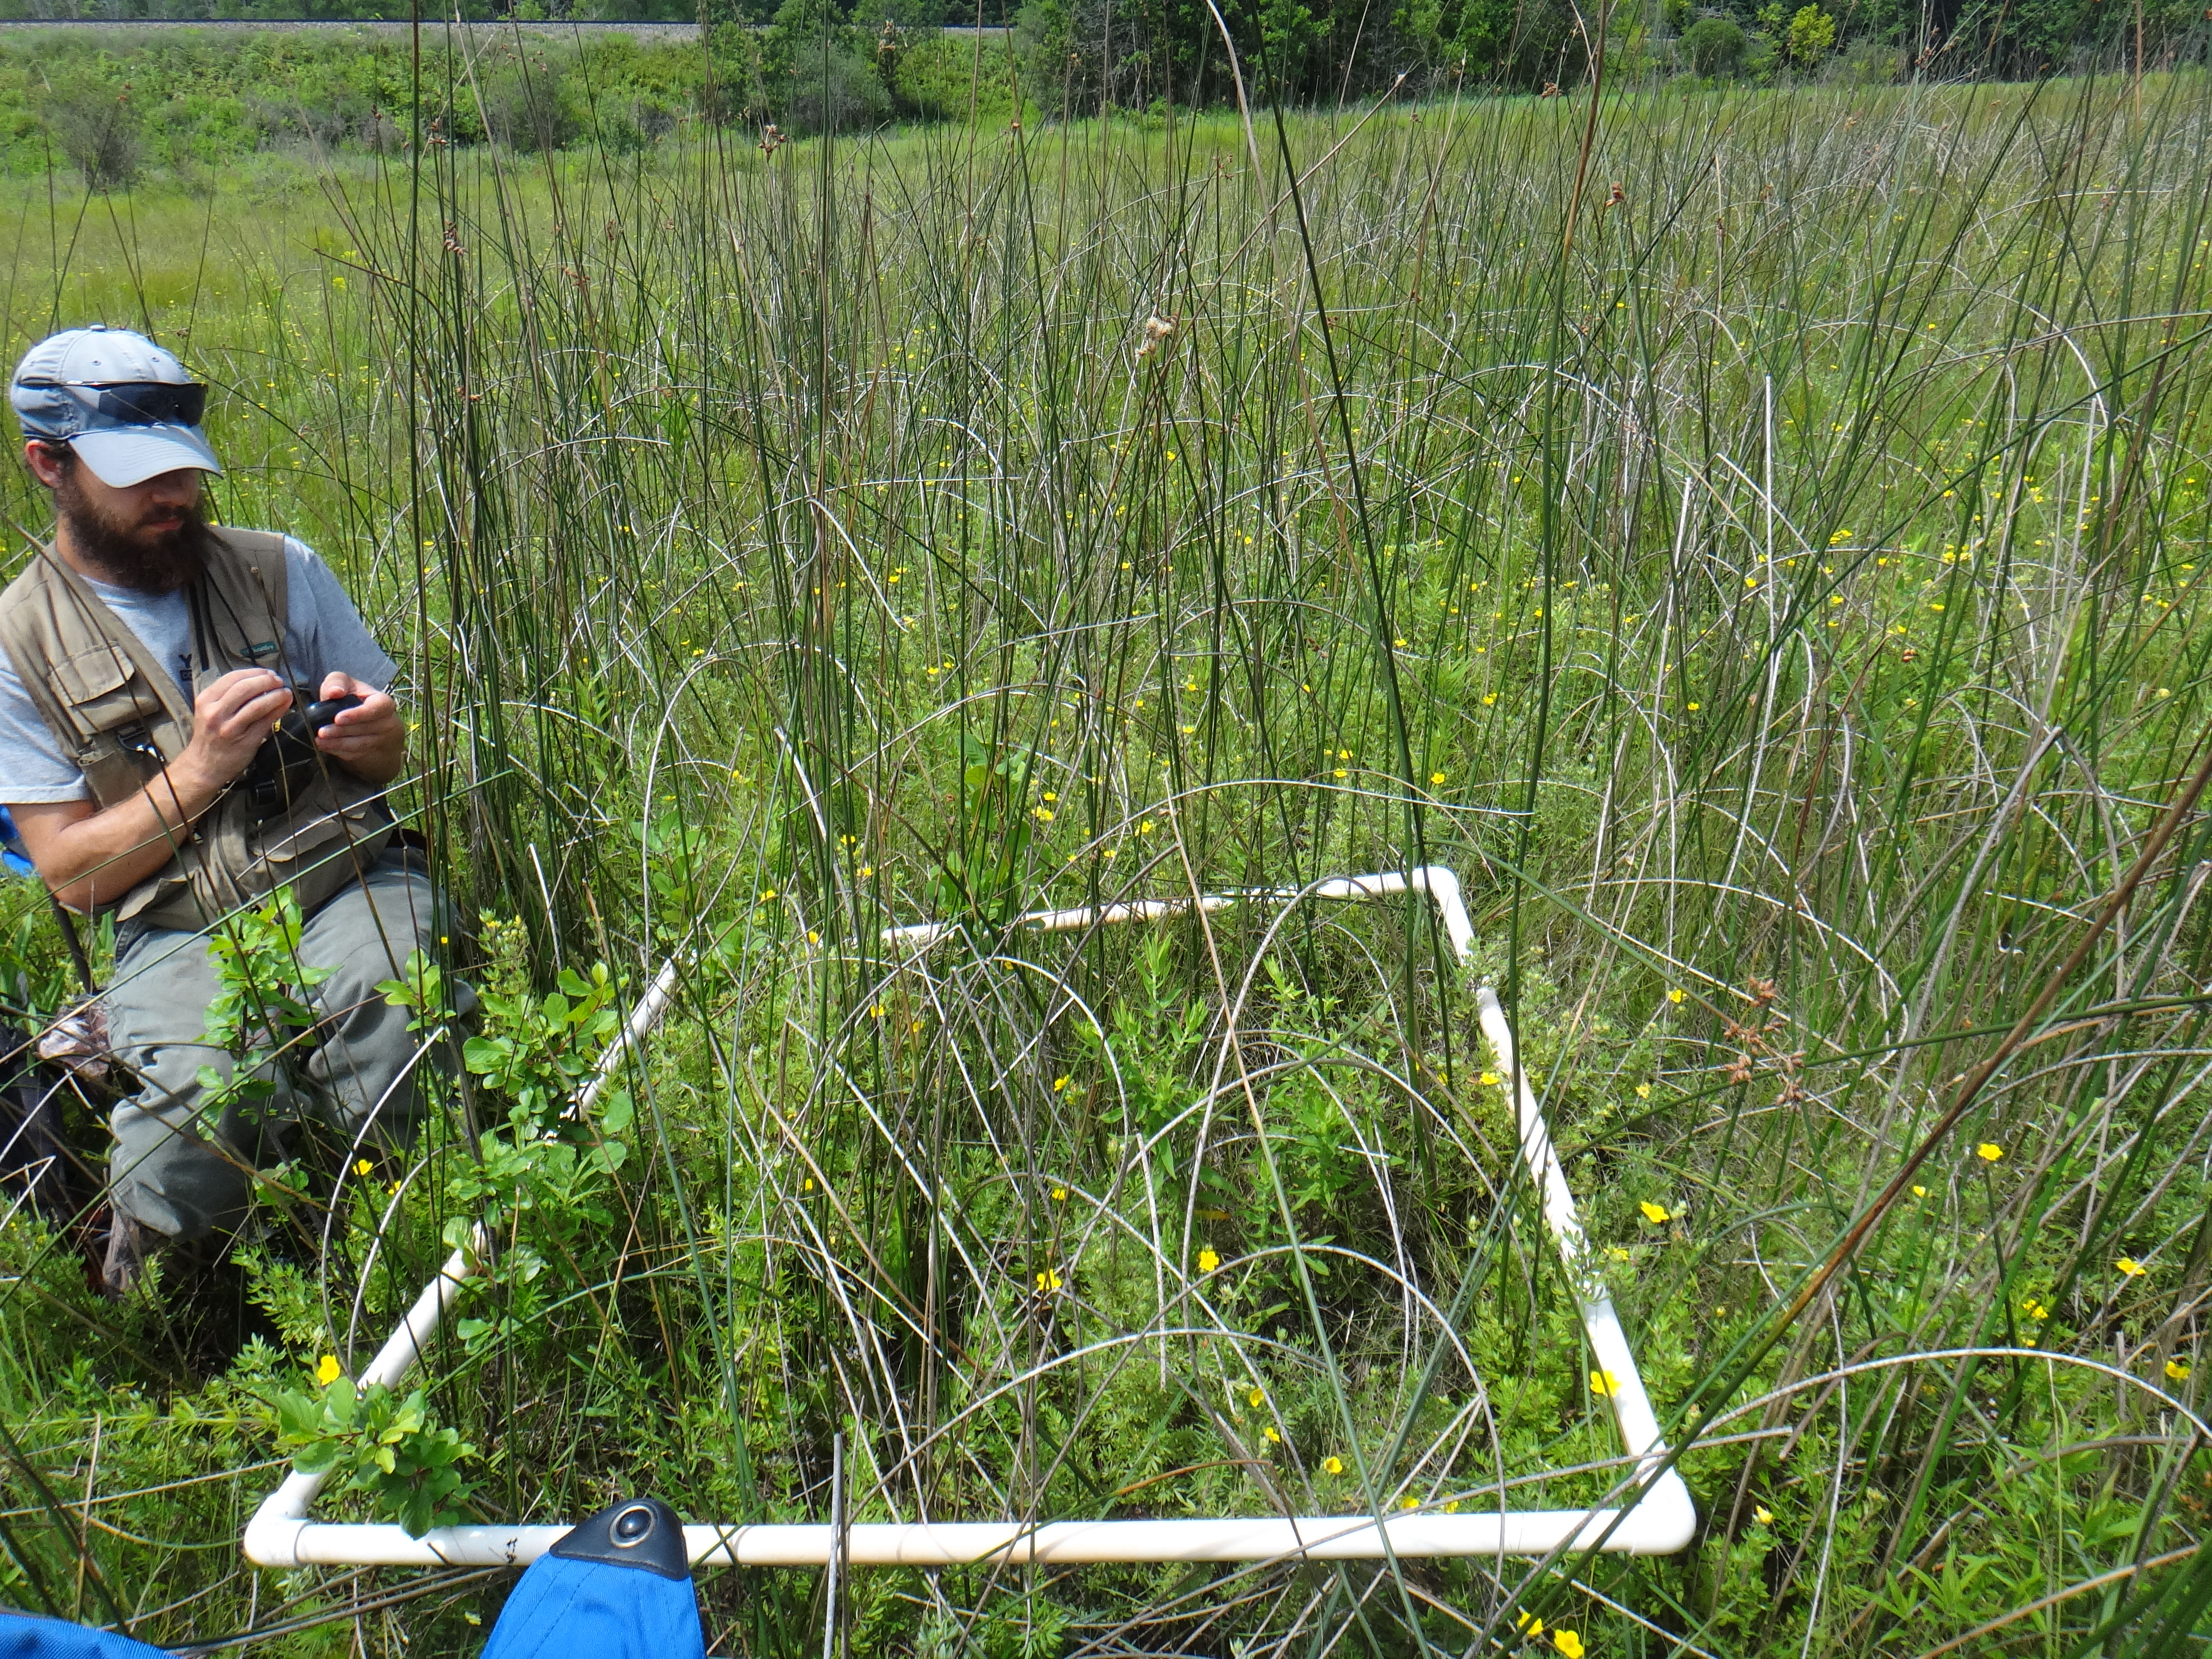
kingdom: Plantae
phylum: Tracheophyta
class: Magnoliopsida
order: Lamiales
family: Lamiaceae
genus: Lycopus
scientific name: Lycopus uniflorus
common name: Northern bugleweed
